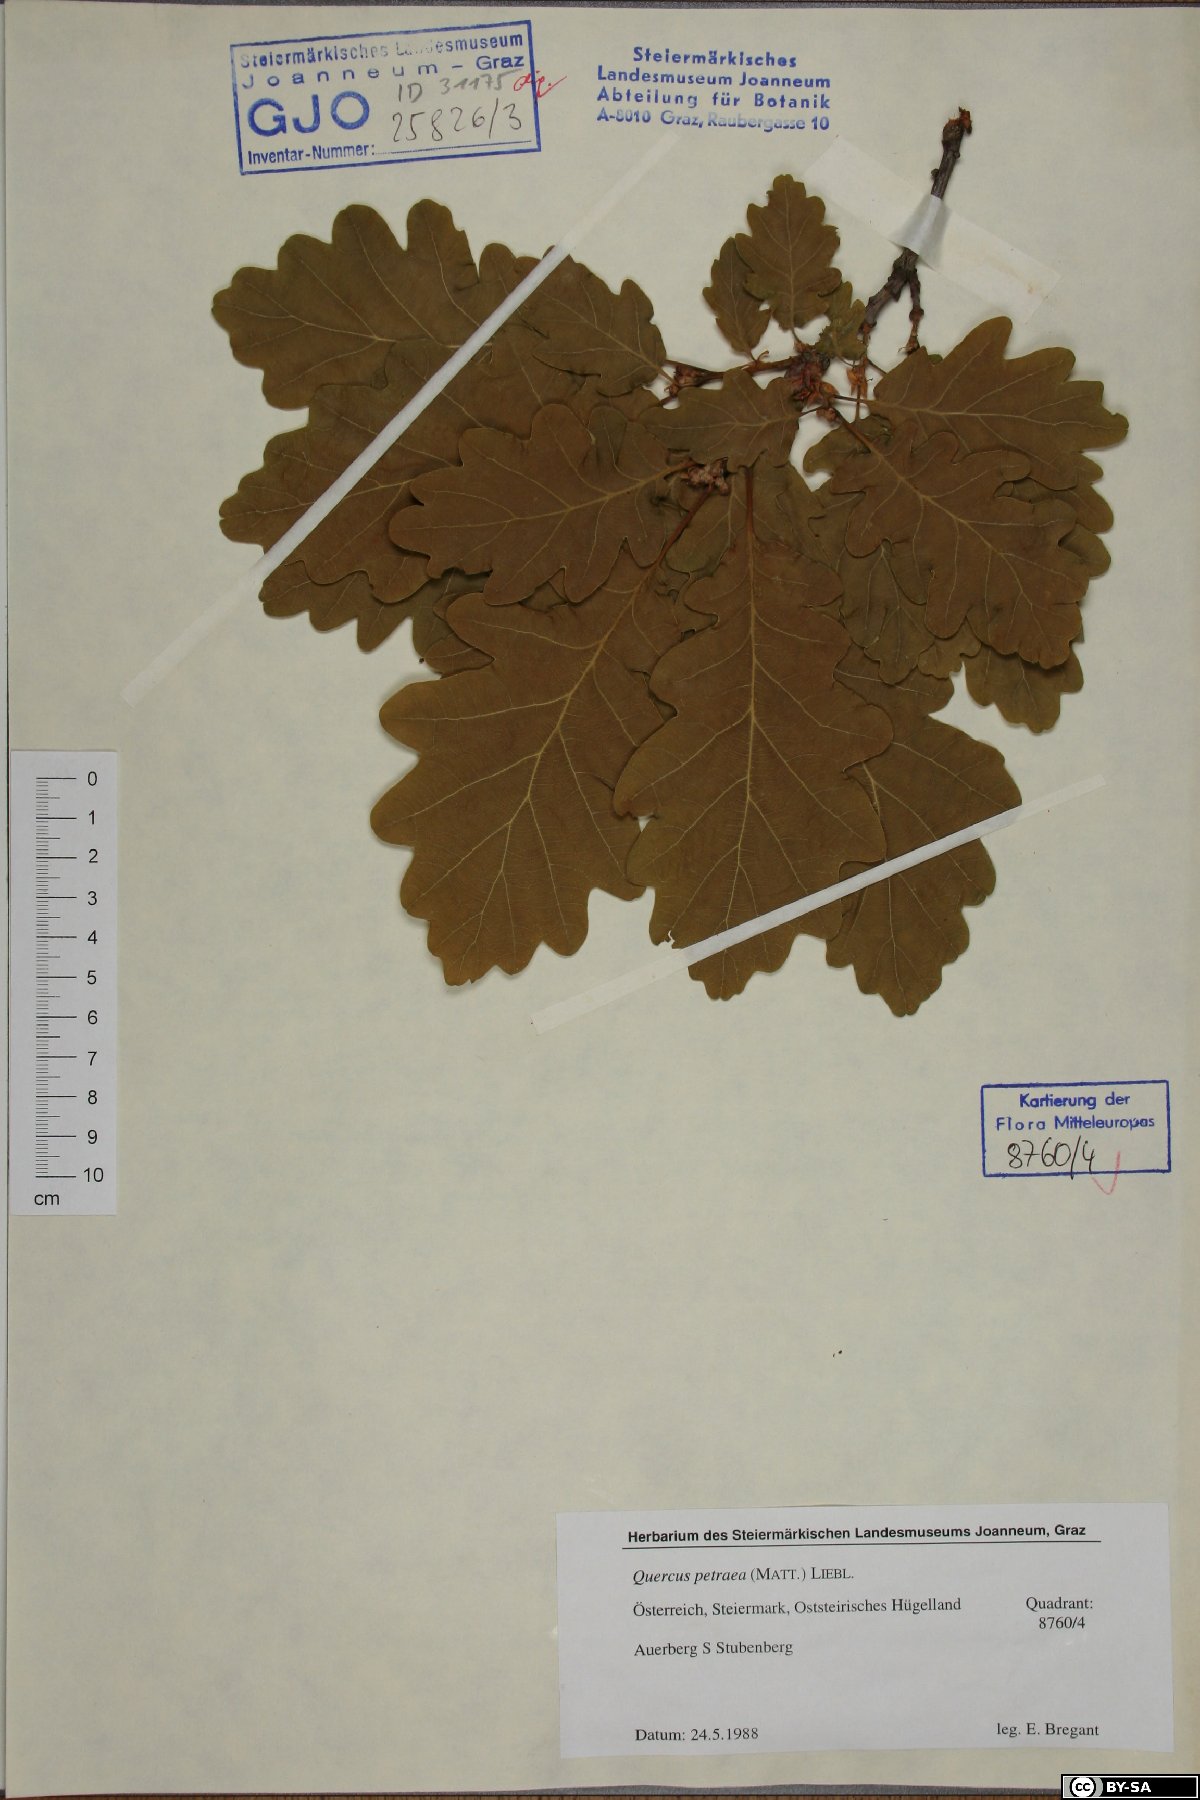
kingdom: Plantae
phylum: Tracheophyta
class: Magnoliopsida
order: Fagales
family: Fagaceae
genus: Quercus
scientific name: Quercus petraea
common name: Sessile oak
